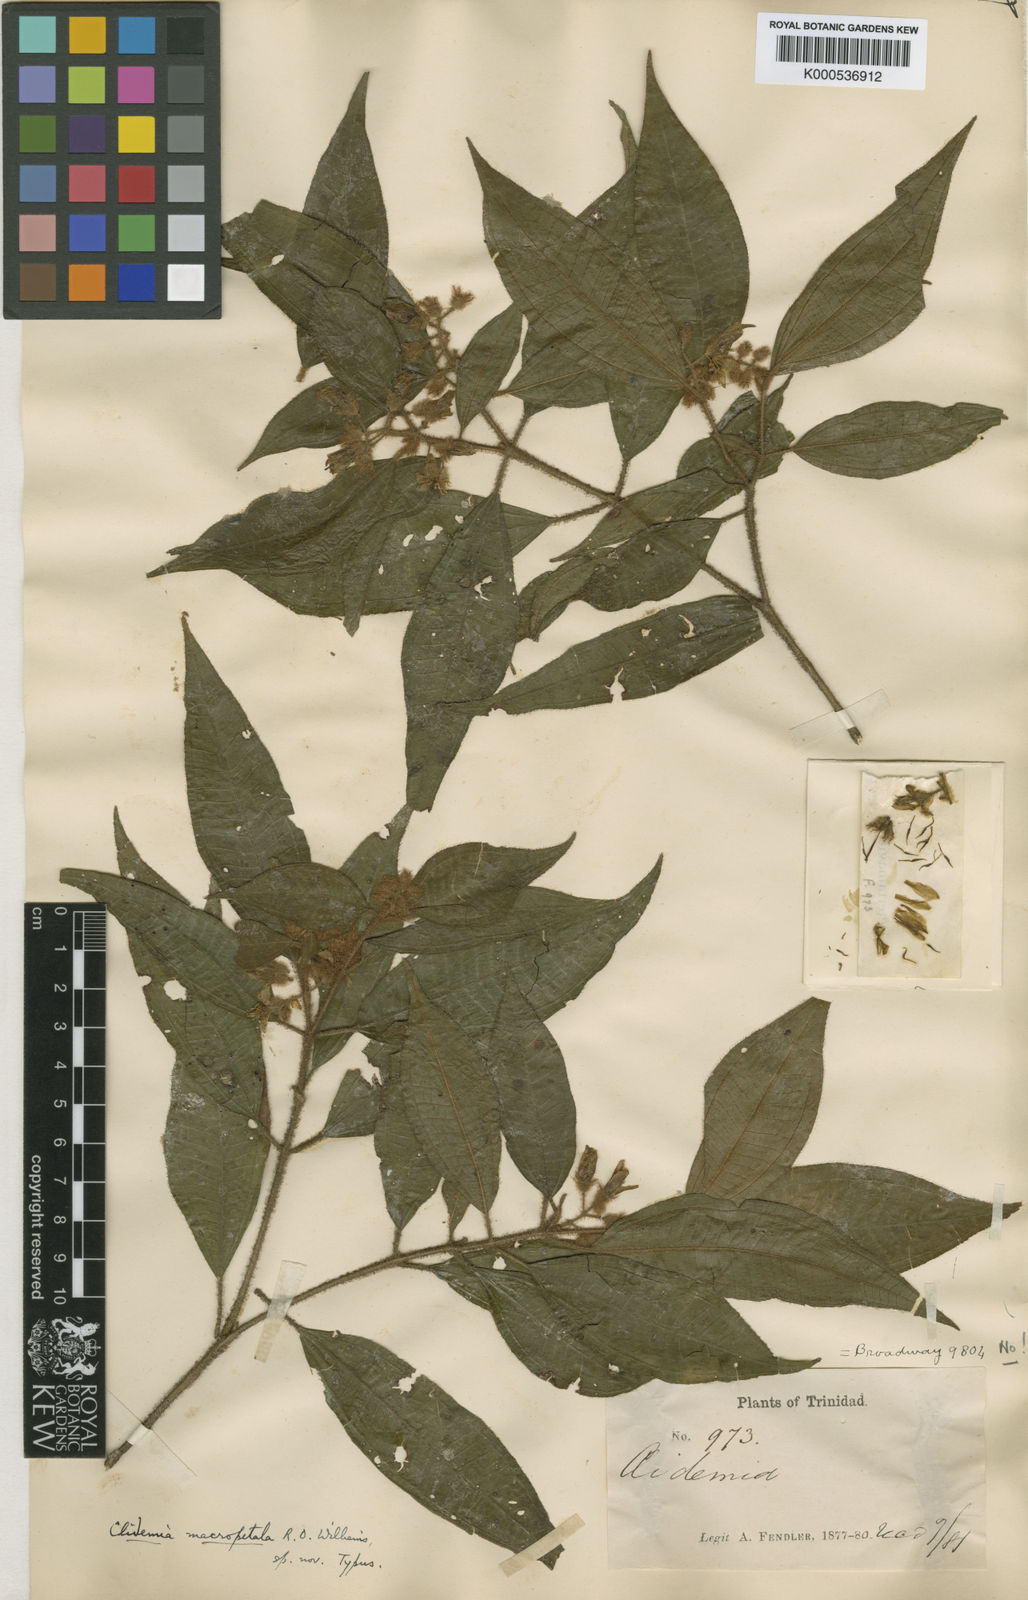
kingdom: Plantae
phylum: Tracheophyta
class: Magnoliopsida
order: Myrtales
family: Melastomataceae
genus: Miconia
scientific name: Miconia macropetala
